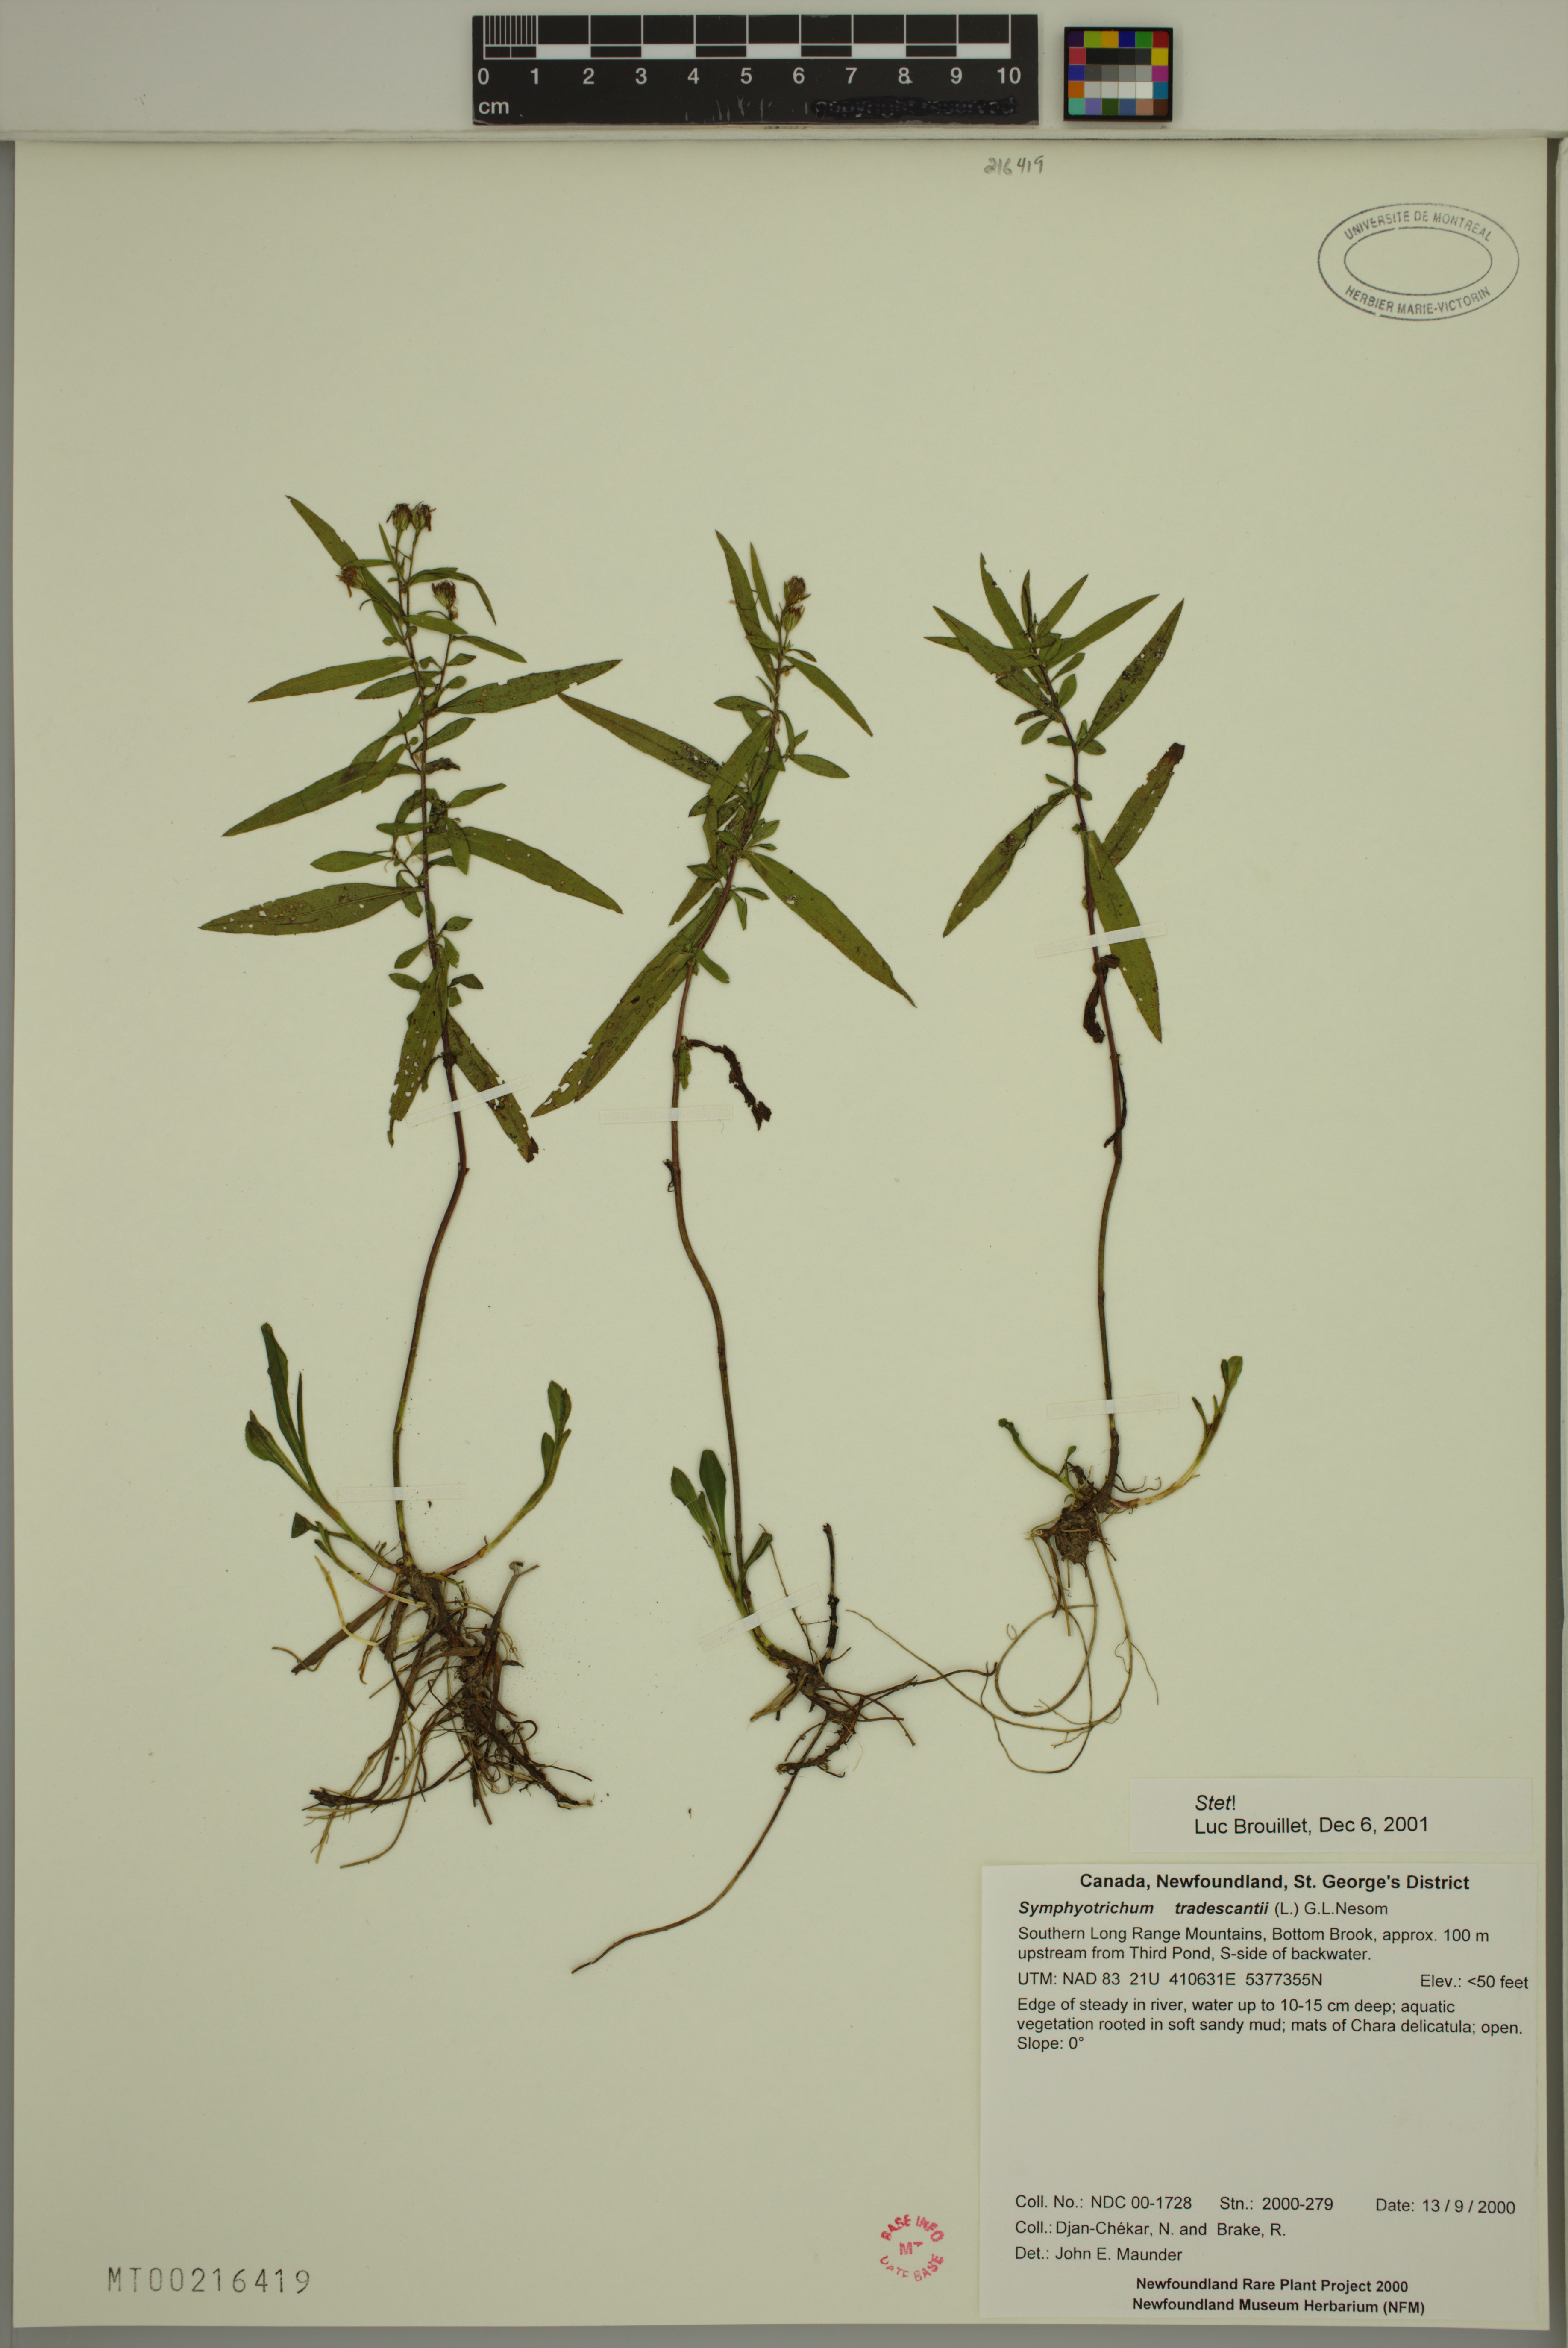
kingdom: Plantae
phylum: Tracheophyta
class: Magnoliopsida
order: Asterales
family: Asteraceae
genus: Symphyotrichum
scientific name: Symphyotrichum tradescantii
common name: Shore aster
